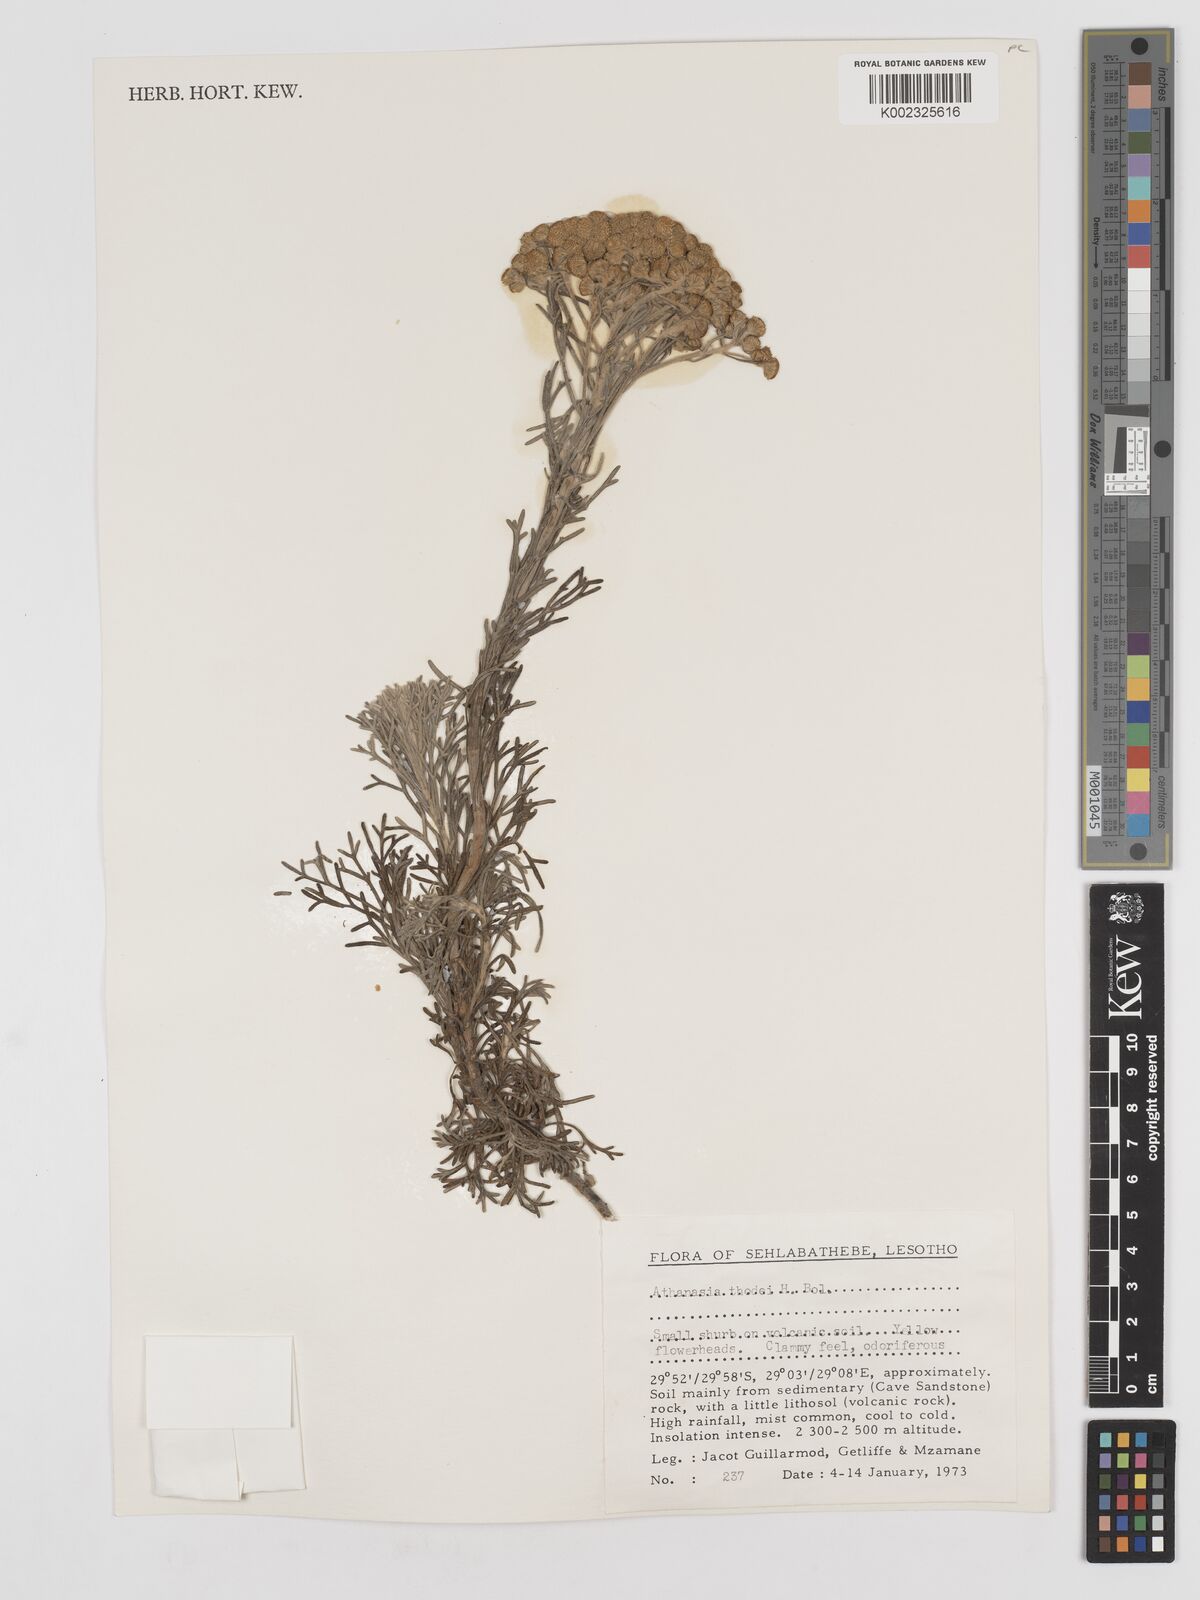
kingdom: Plantae
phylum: Tracheophyta
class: Magnoliopsida
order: Asterales
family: Asteraceae
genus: Inulanthera
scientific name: Inulanthera thodei
